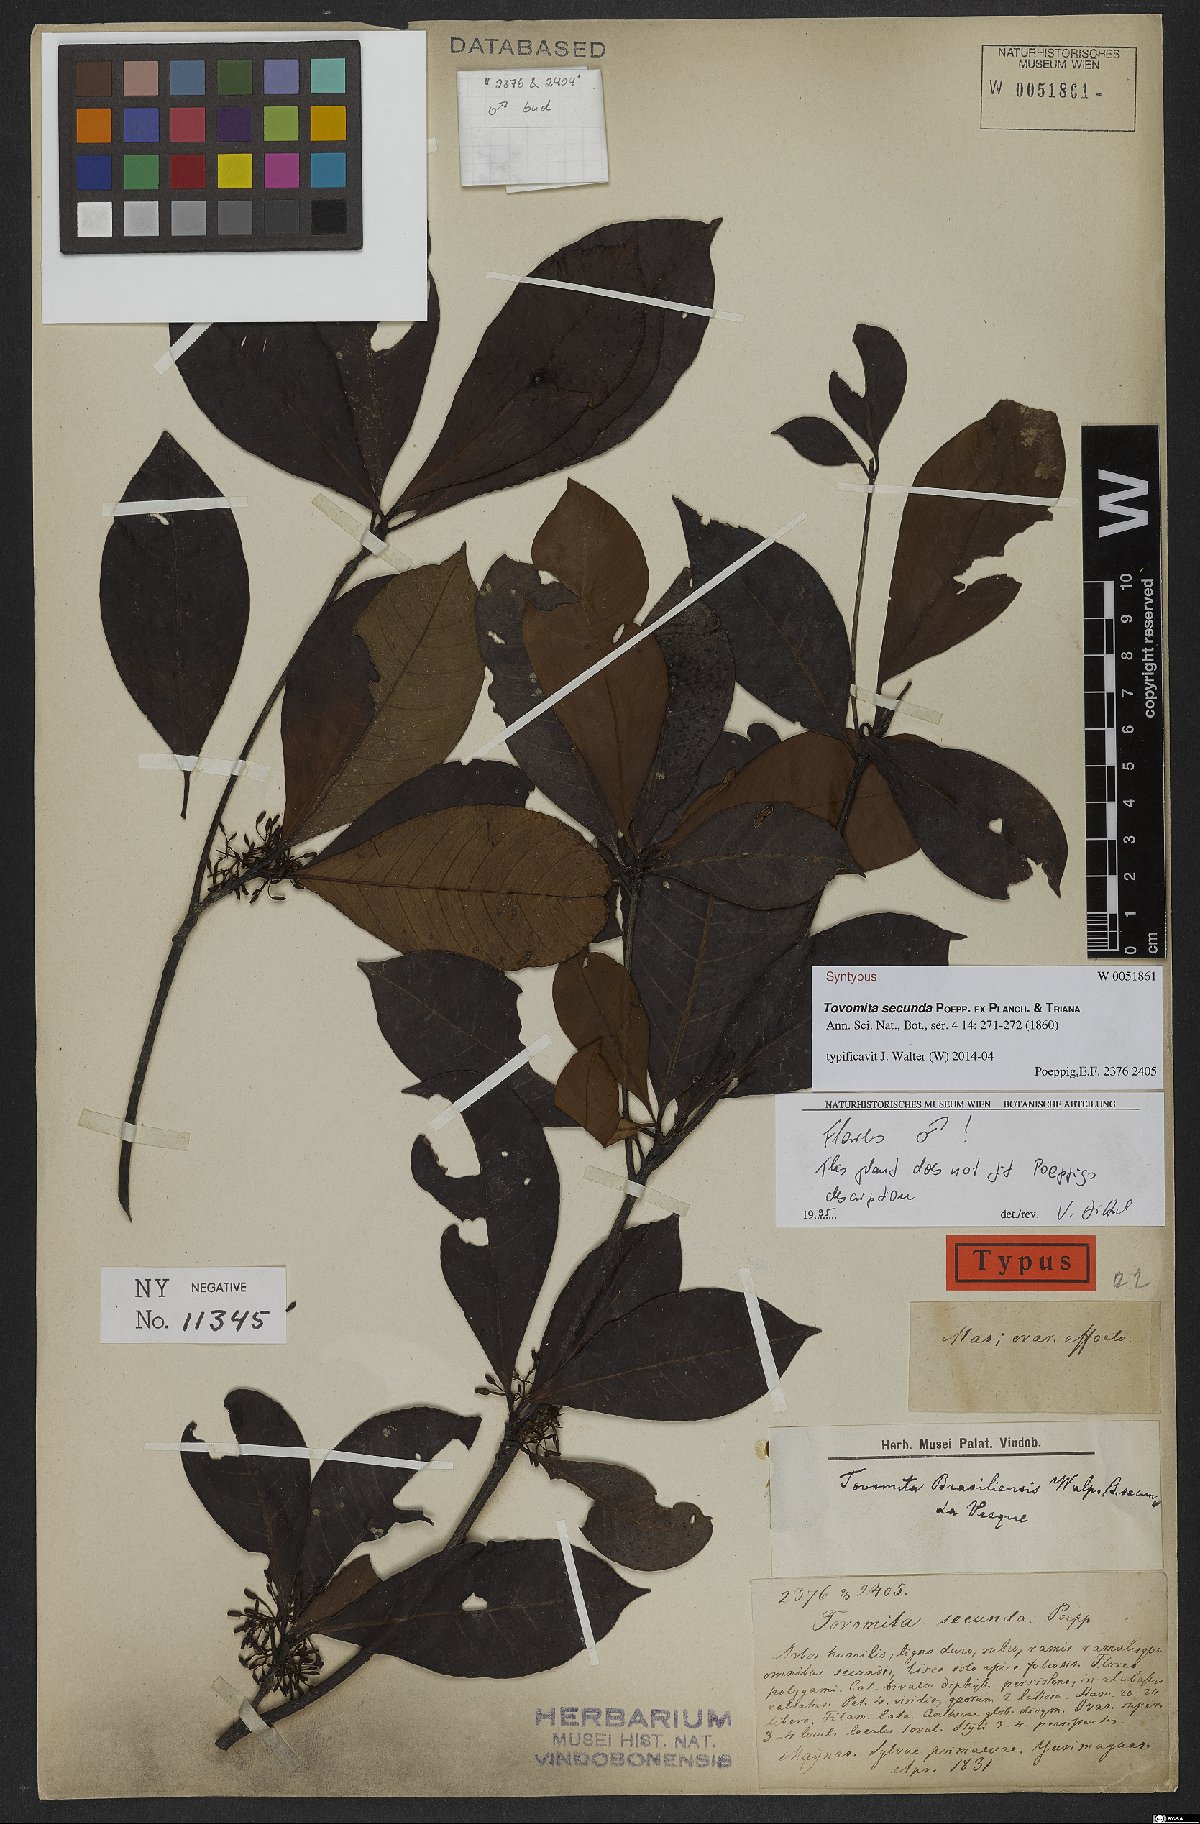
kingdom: Plantae
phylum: Tracheophyta
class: Magnoliopsida
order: Malpighiales
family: Clusiaceae
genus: Tovomita
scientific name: Tovomita secunda
